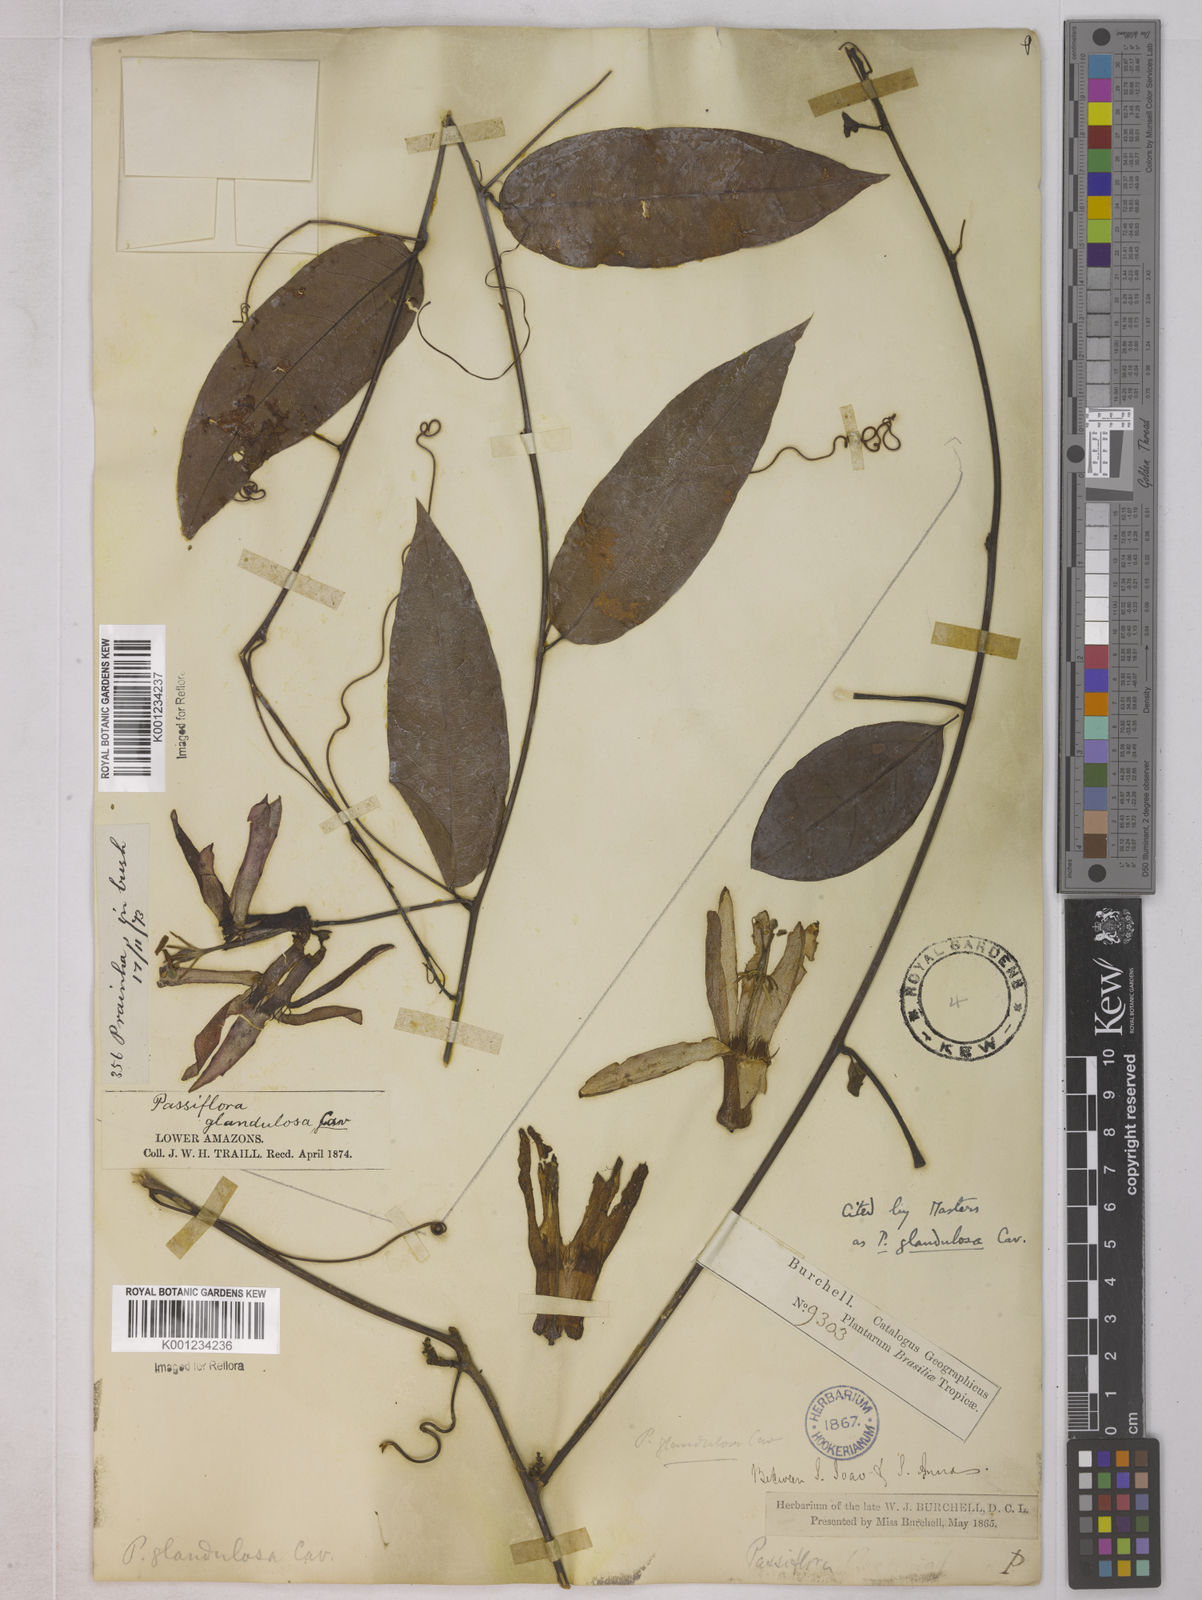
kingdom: Plantae
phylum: Tracheophyta
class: Magnoliopsida
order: Malpighiales
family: Passifloraceae
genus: Passiflora
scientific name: Passiflora glandulosa
